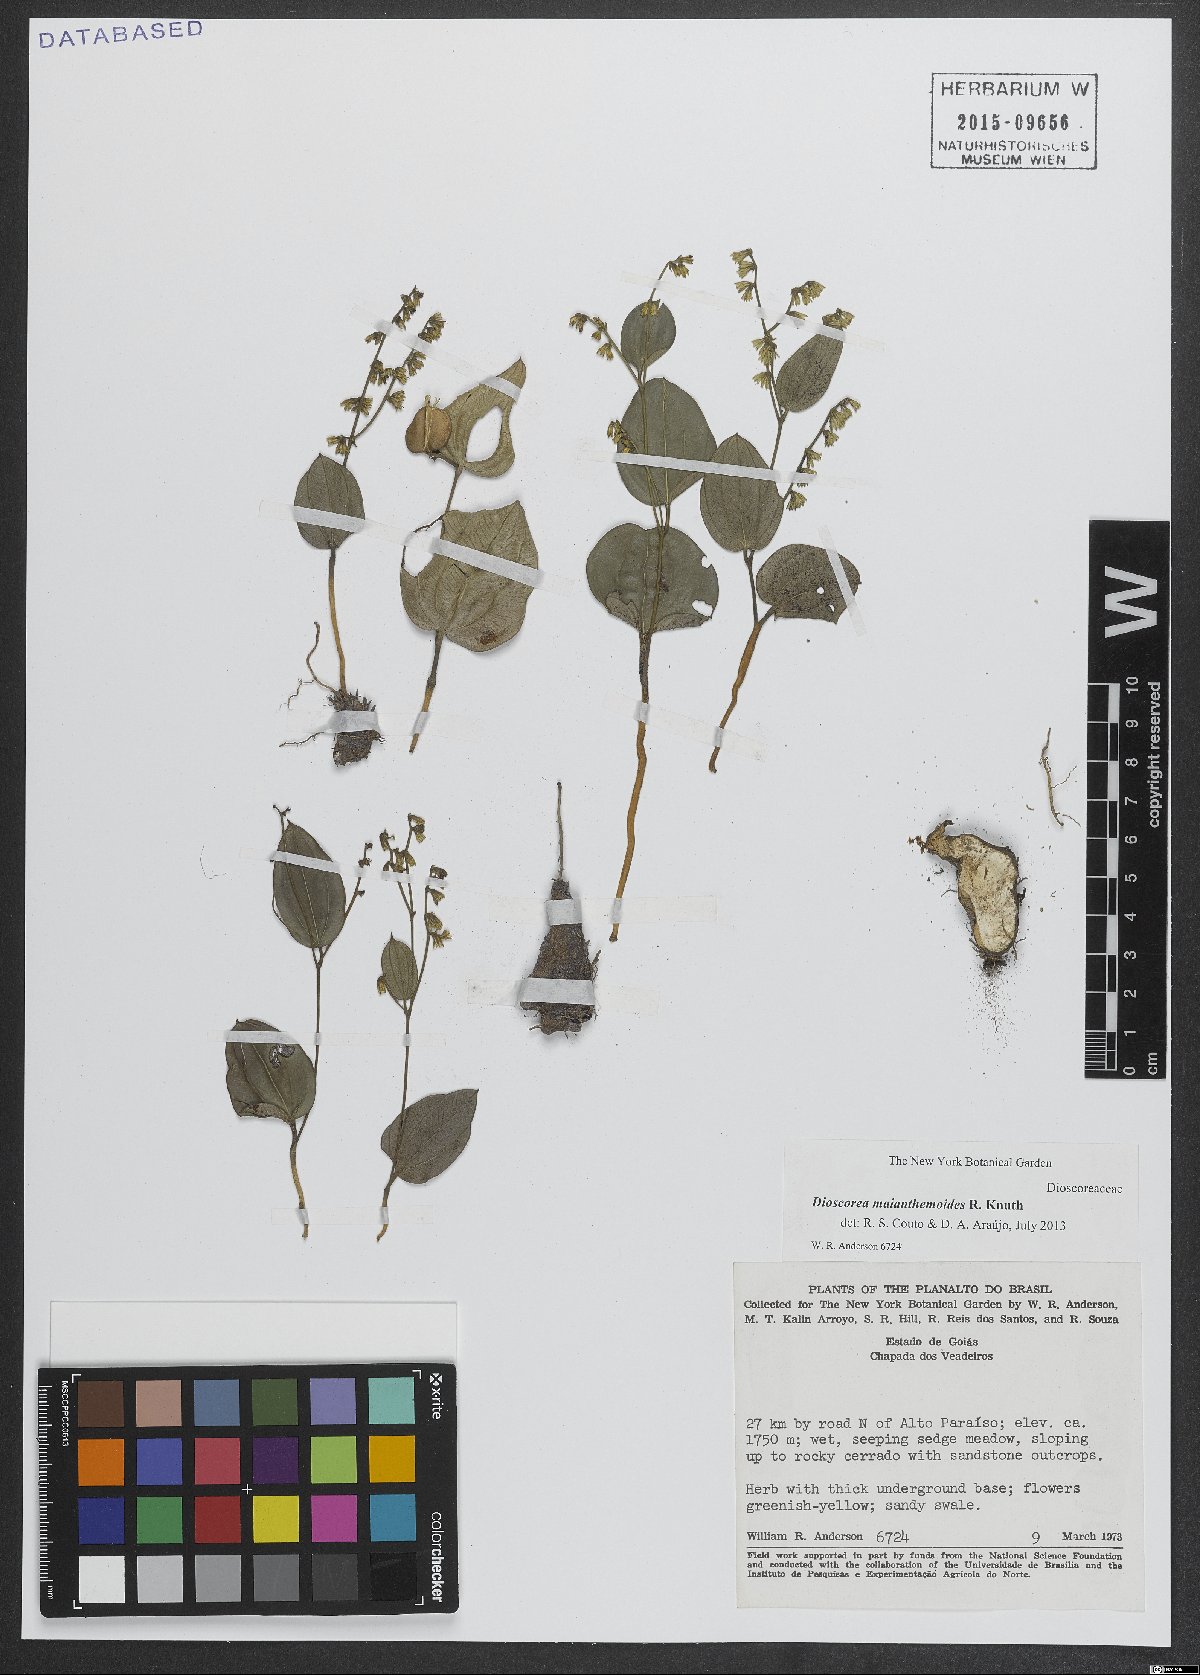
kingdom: Plantae
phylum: Tracheophyta
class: Liliopsida
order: Dioscoreales
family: Dioscoreaceae
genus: Dioscorea
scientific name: Dioscorea maianthemoides
